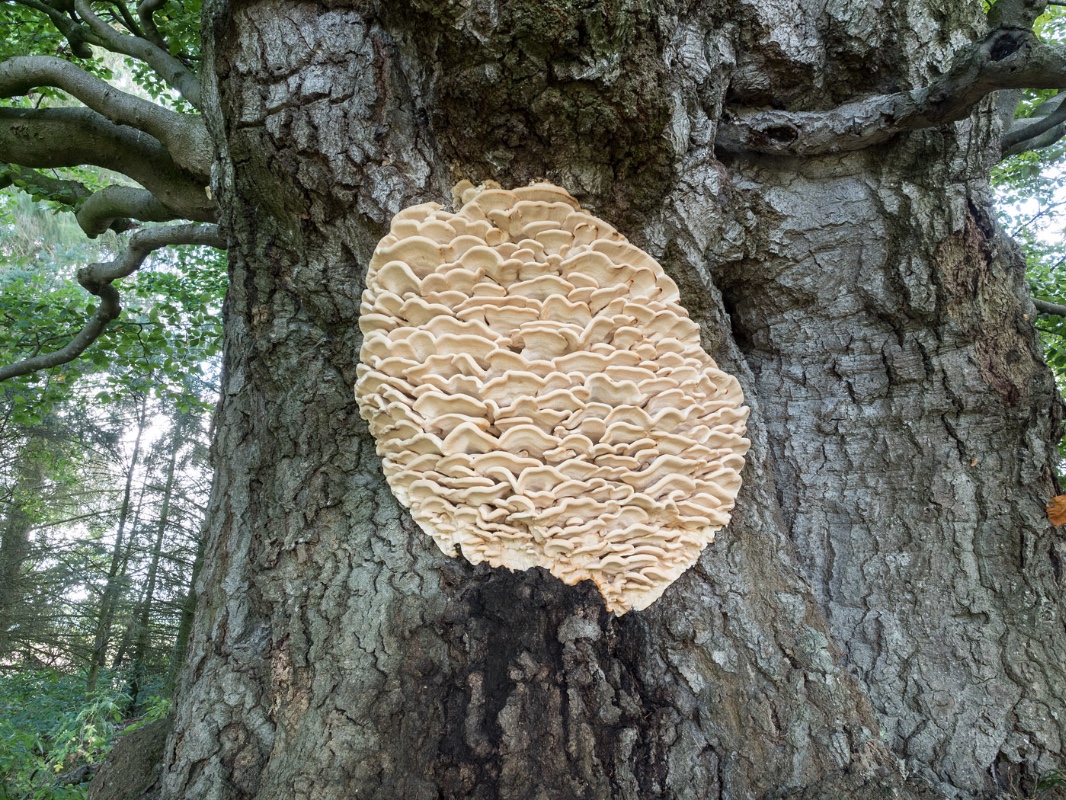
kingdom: Fungi
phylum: Basidiomycota
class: Agaricomycetes
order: Polyporales
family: Meruliaceae
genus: Climacodon
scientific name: Climacodon septentrionalis
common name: kæmpepigsvamp
